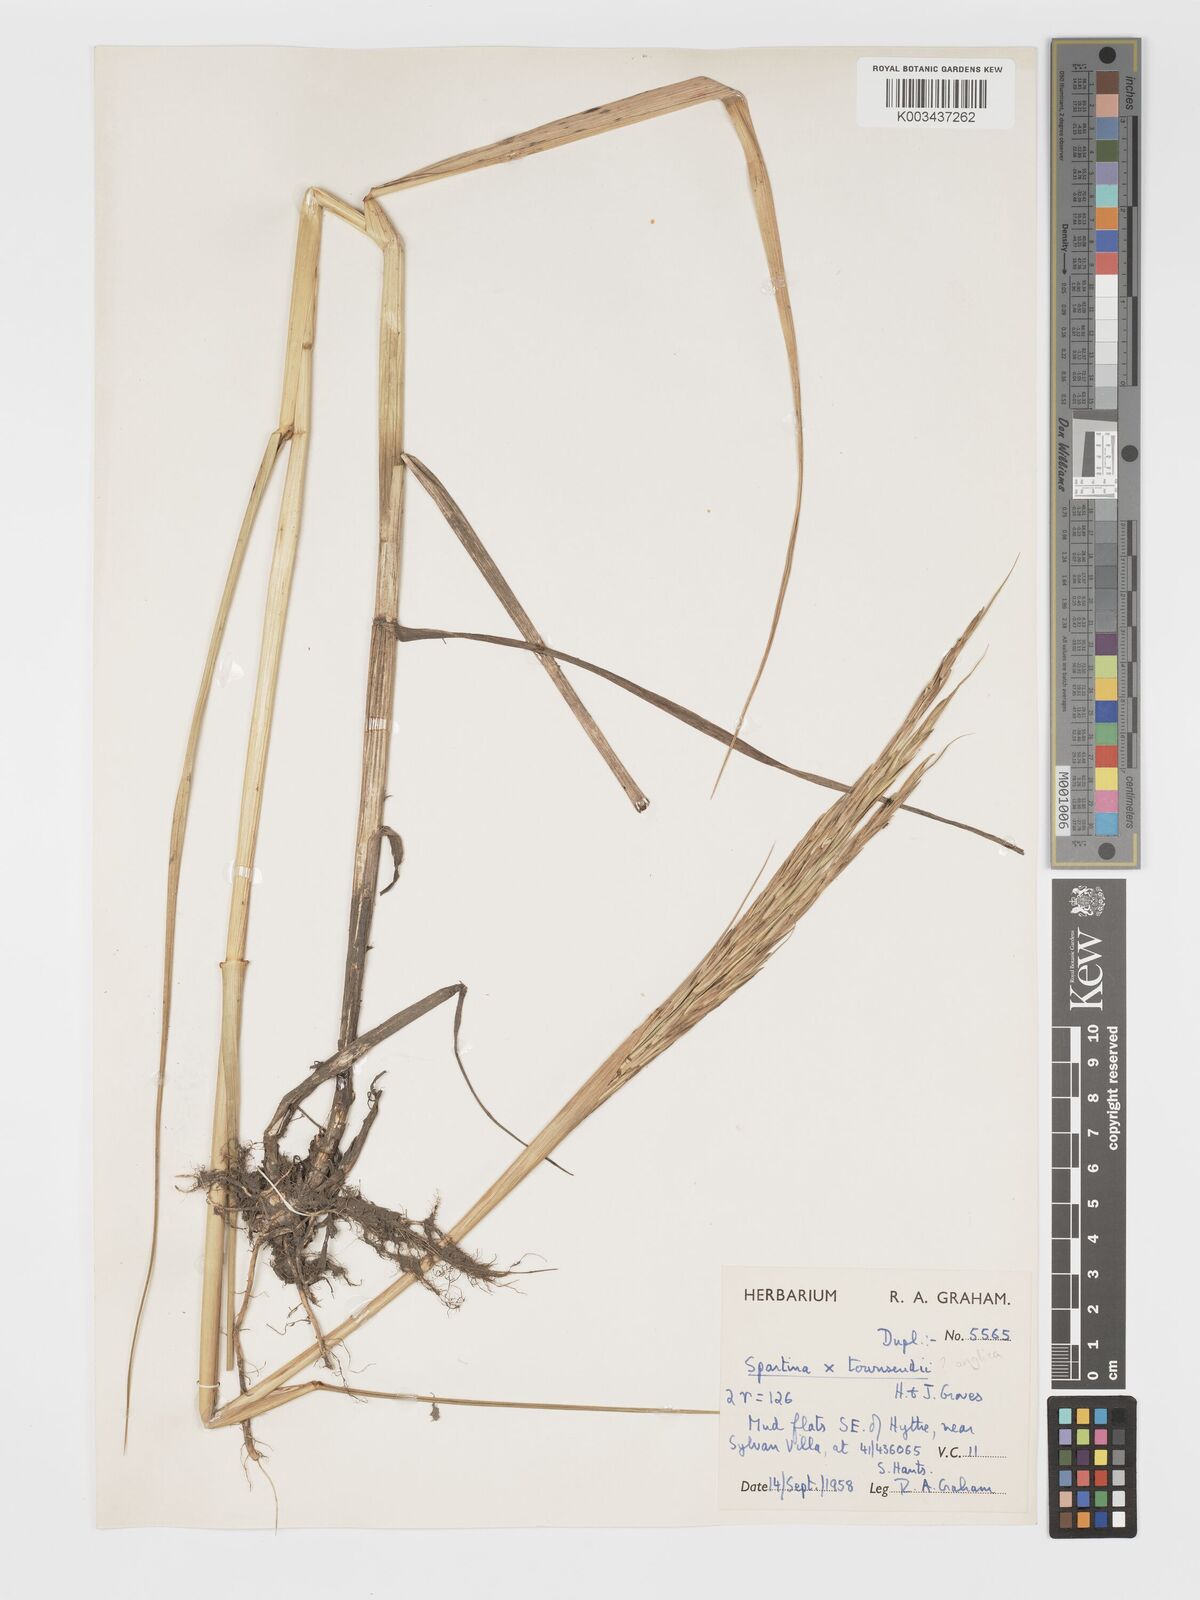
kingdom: Plantae
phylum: Tracheophyta
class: Liliopsida
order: Poales
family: Poaceae
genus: Sporobolus
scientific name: Sporobolus townsendii
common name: Townsend's cordgrass
